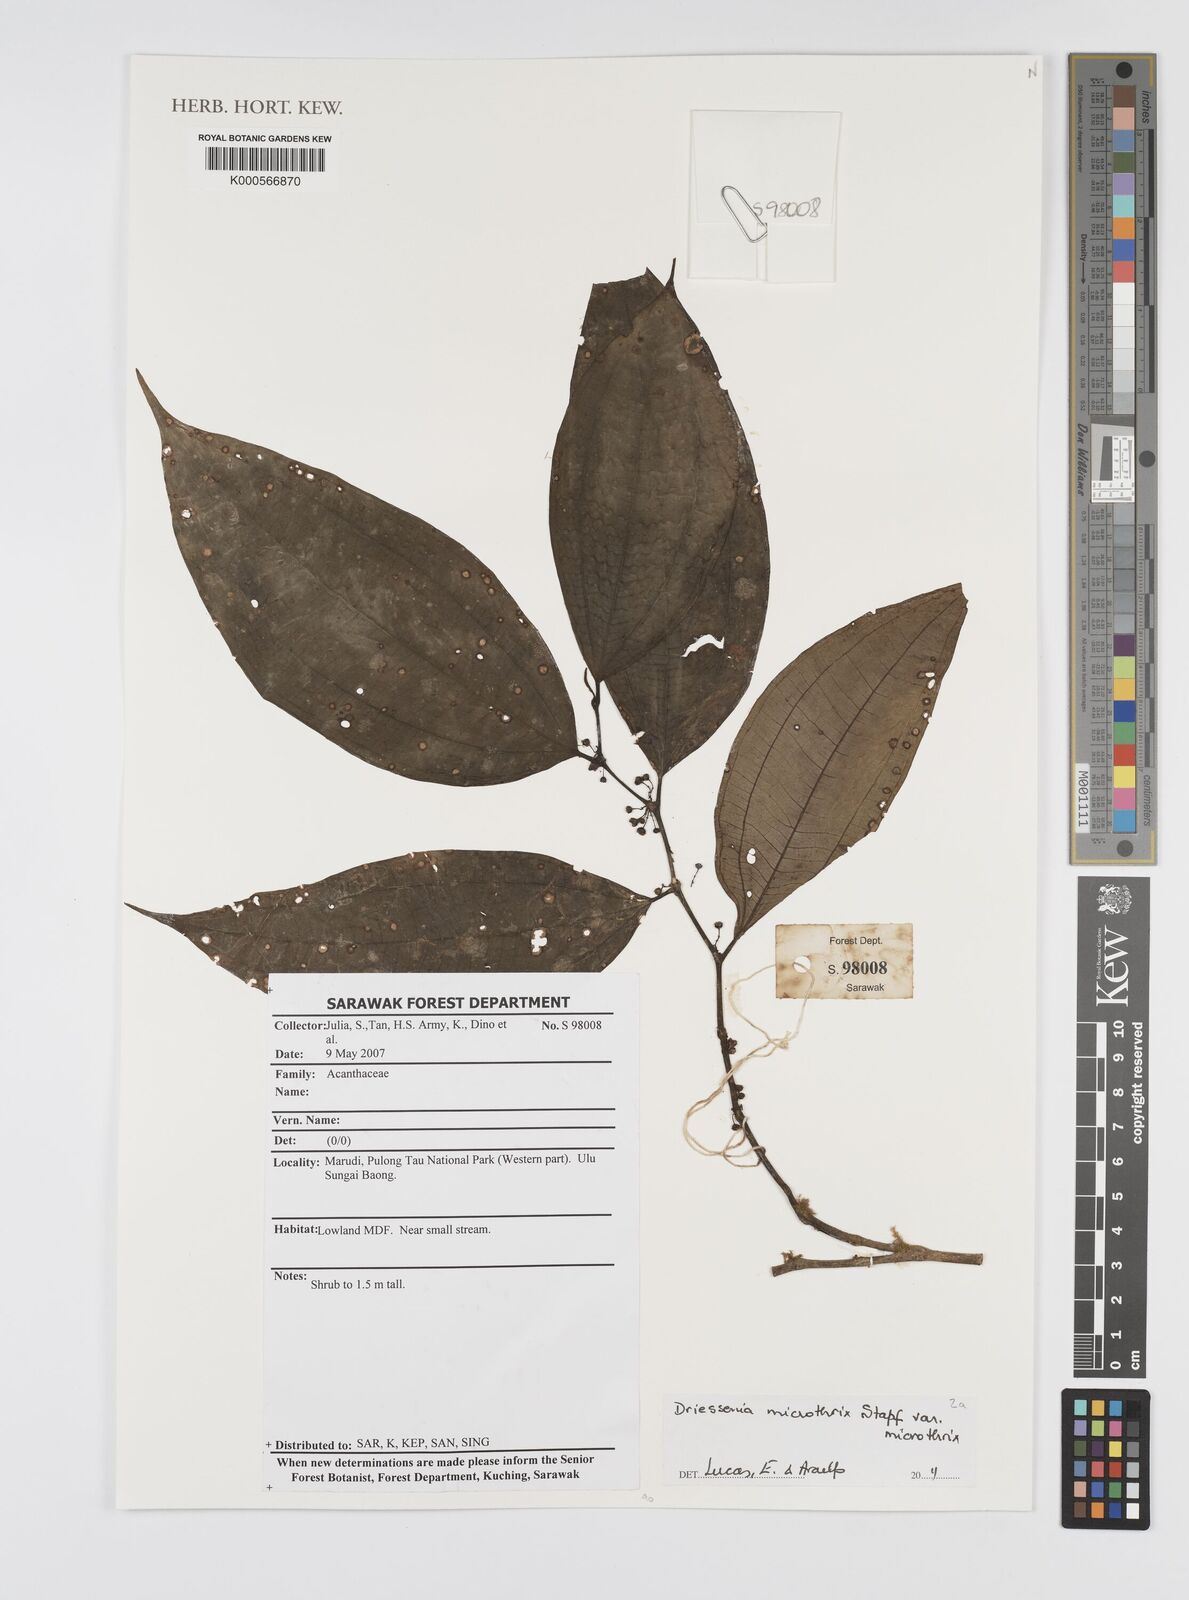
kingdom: Plantae
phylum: Tracheophyta
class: Magnoliopsida
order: Myrtales
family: Melastomataceae
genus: Driessenia
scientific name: Driessenia microthrix
